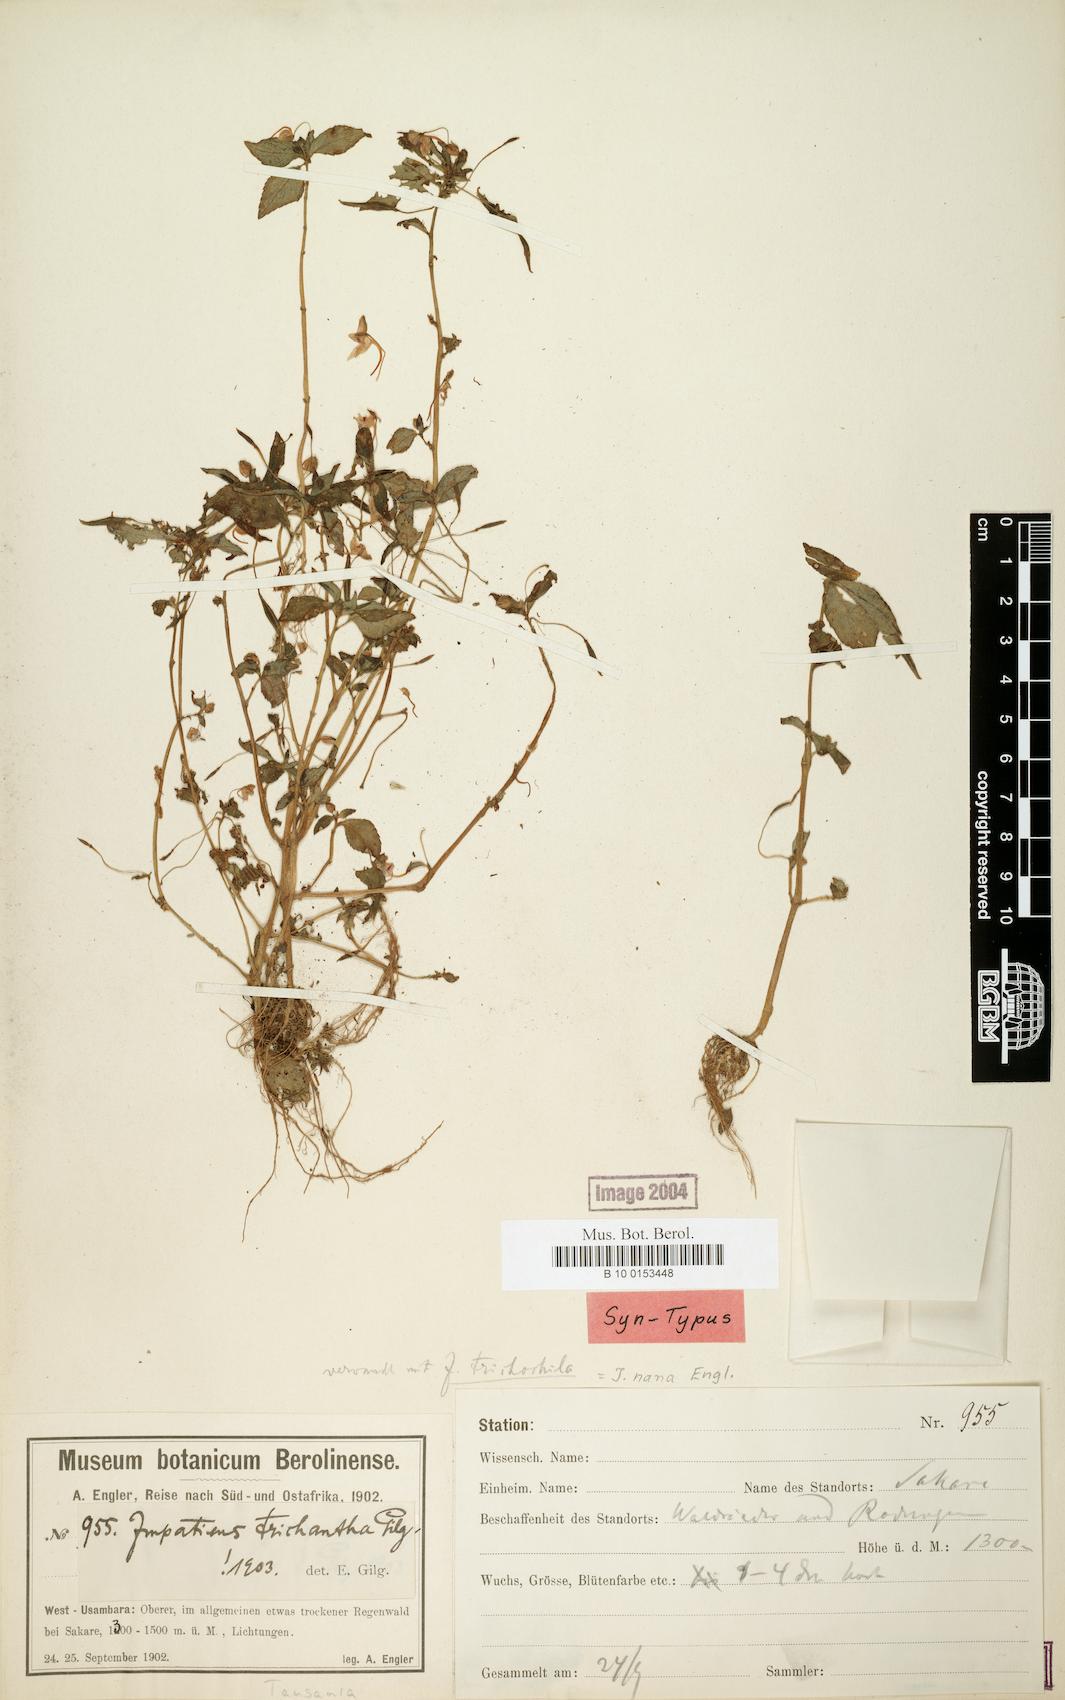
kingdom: Plantae
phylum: Tracheophyta
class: Magnoliopsida
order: Ericales
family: Balsaminaceae
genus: Impatiens
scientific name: Impatiens nana
